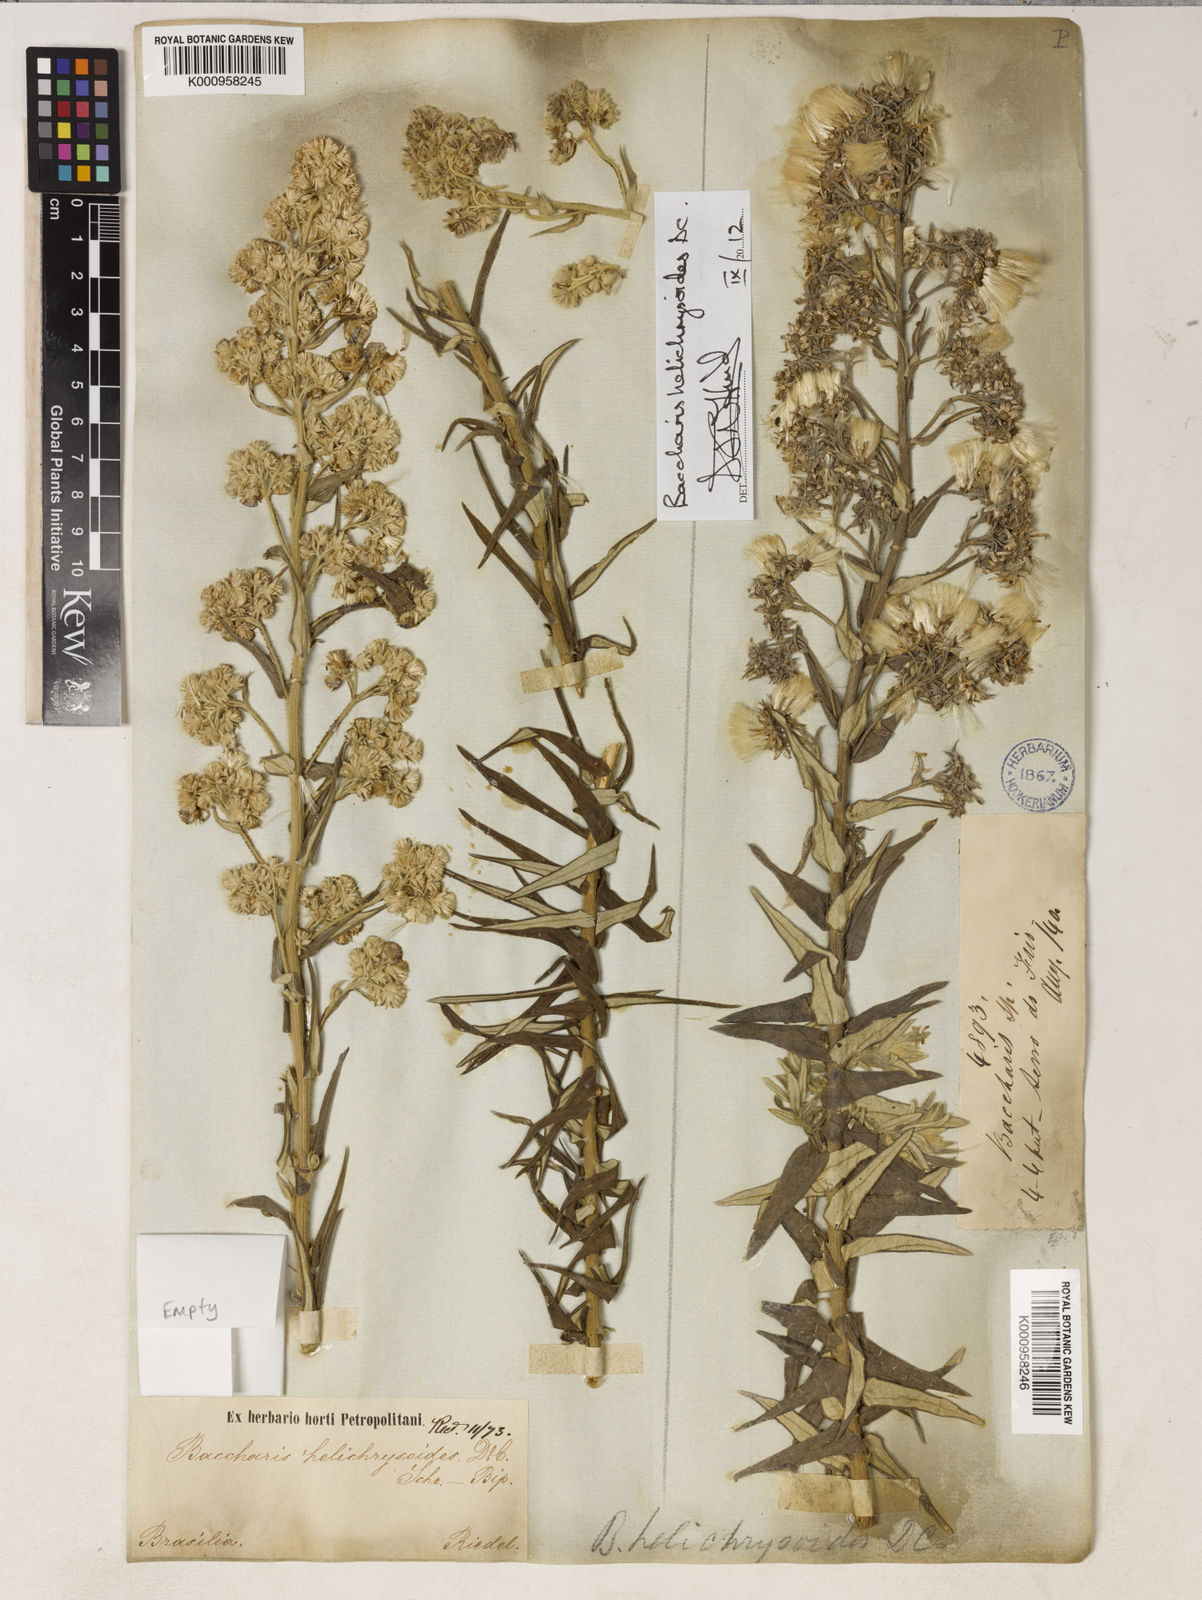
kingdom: Plantae
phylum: Tracheophyta
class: Magnoliopsida
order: Asterales
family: Asteraceae
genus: Baccharis
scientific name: Baccharis helichrysoides
